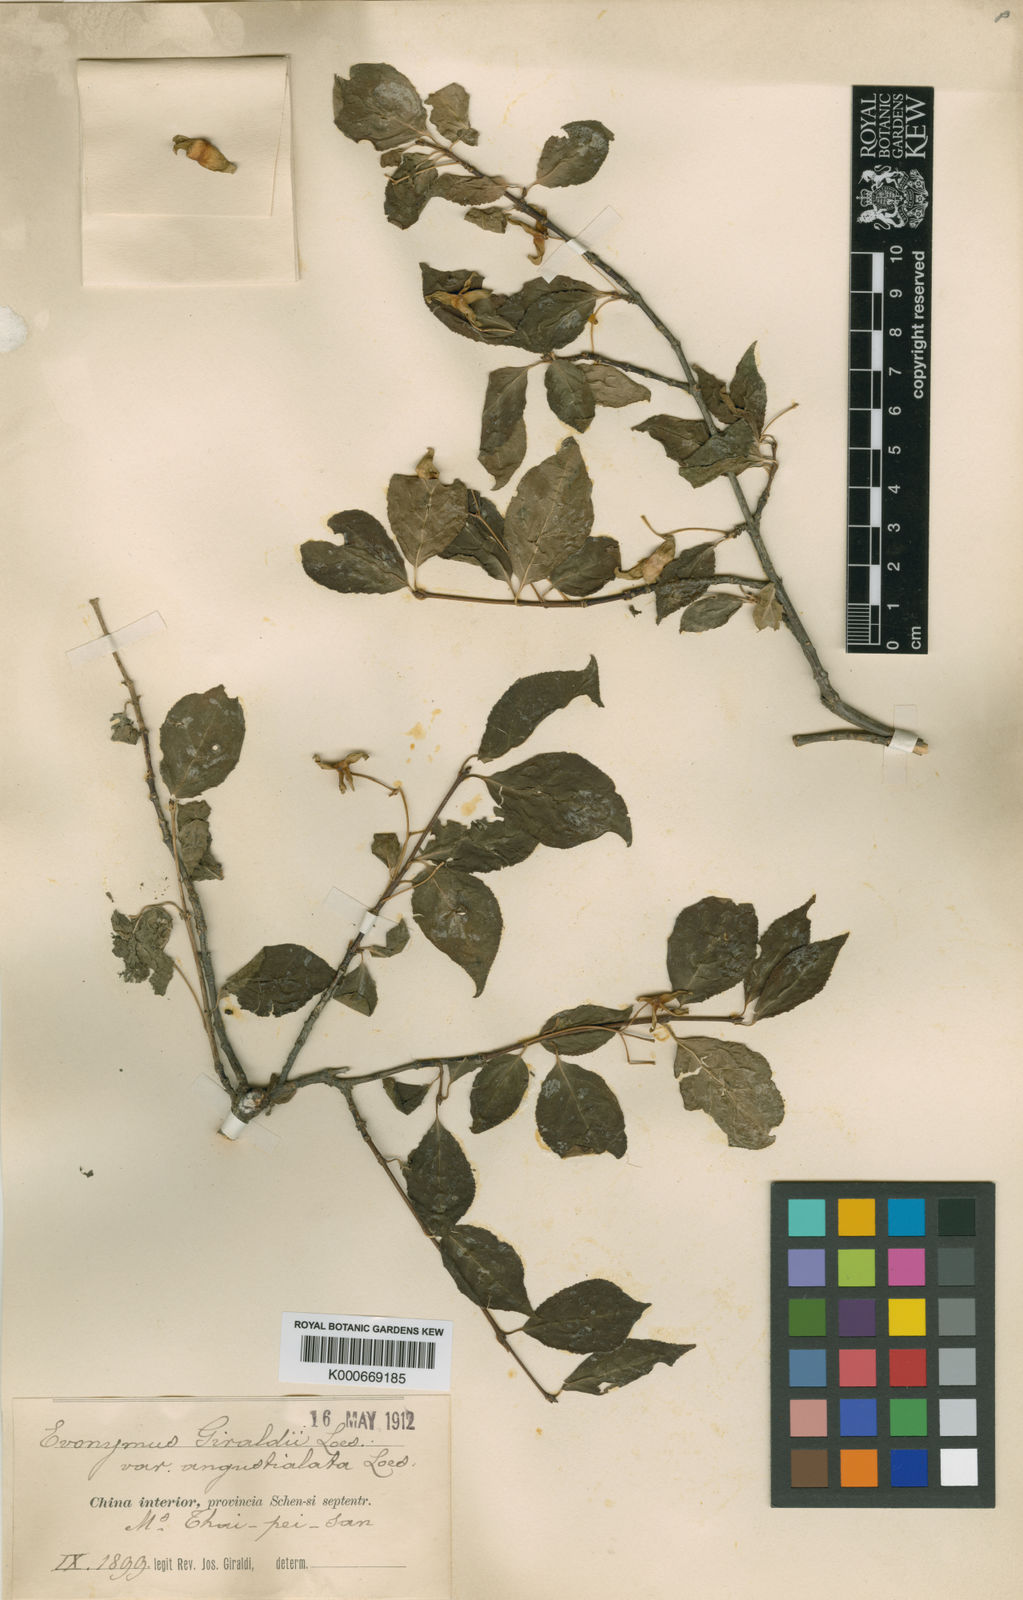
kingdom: Plantae
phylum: Tracheophyta
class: Magnoliopsida
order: Celastrales
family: Celastraceae
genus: Euonymus
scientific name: Euonymus giraldii
